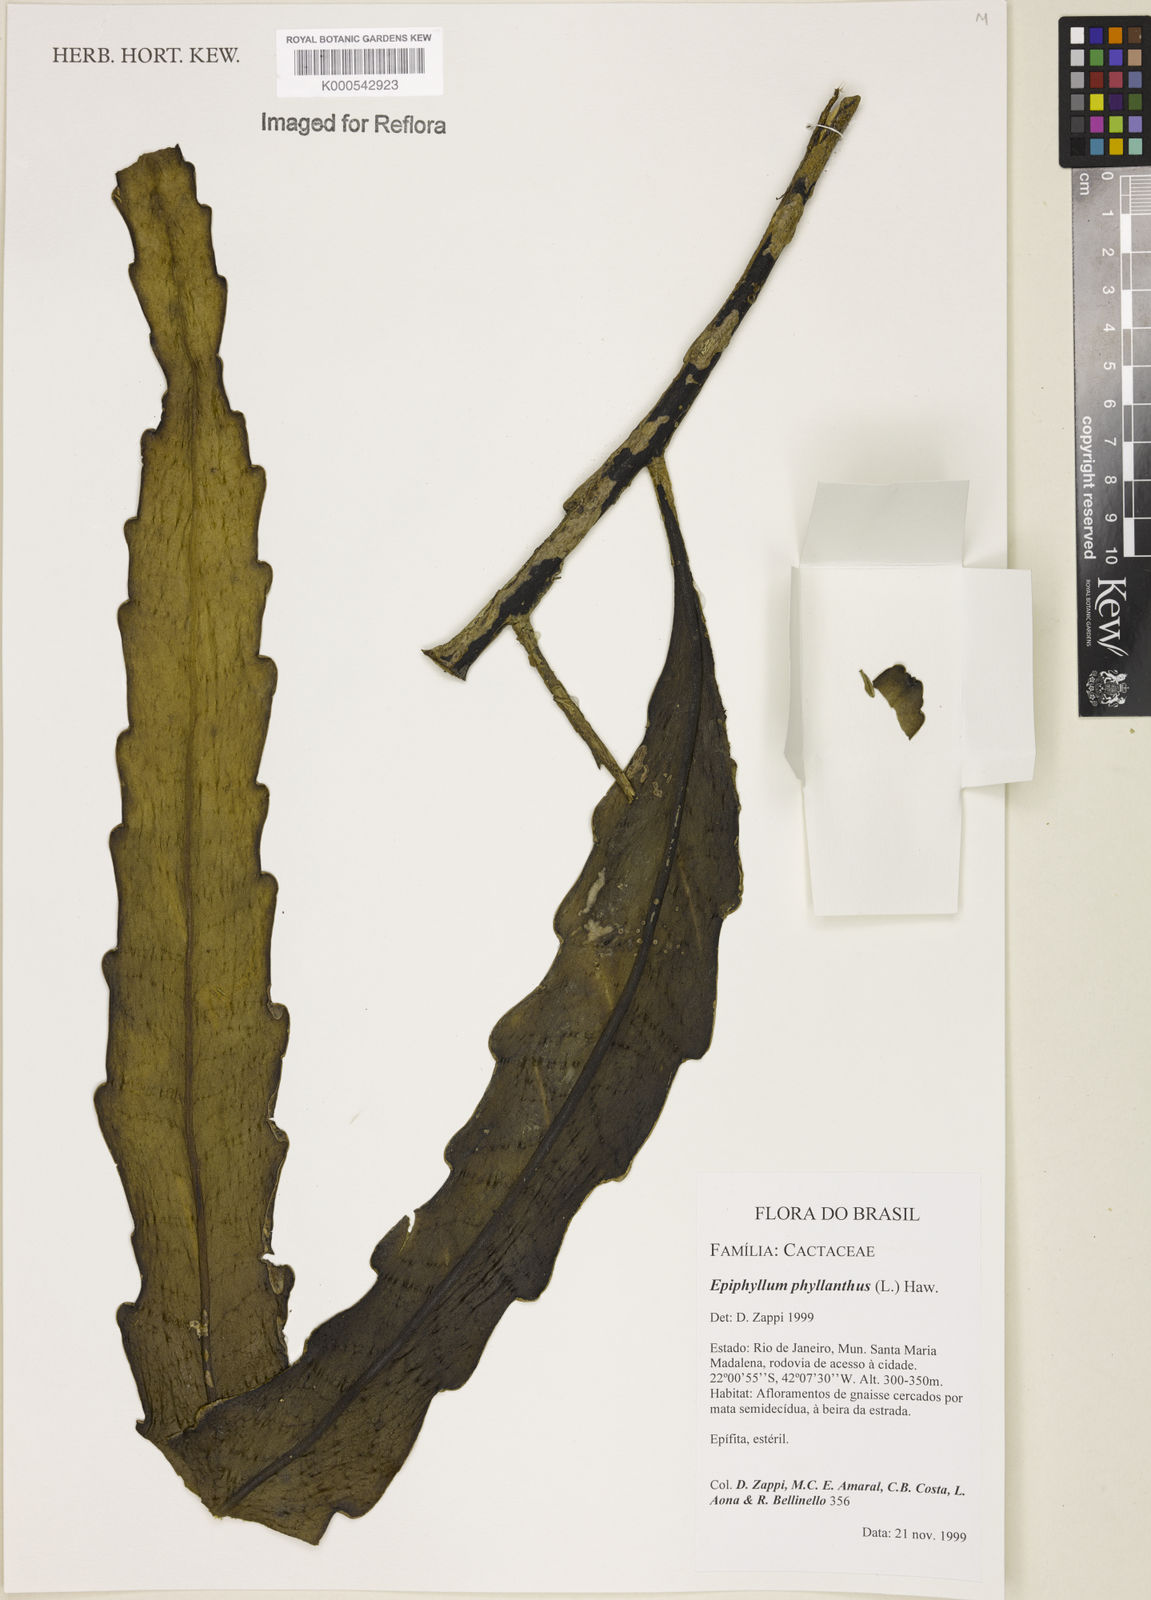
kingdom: Plantae
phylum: Tracheophyta
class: Magnoliopsida
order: Caryophyllales
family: Cactaceae
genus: Epiphyllum
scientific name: Epiphyllum phyllanthus
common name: Climbing cactus
